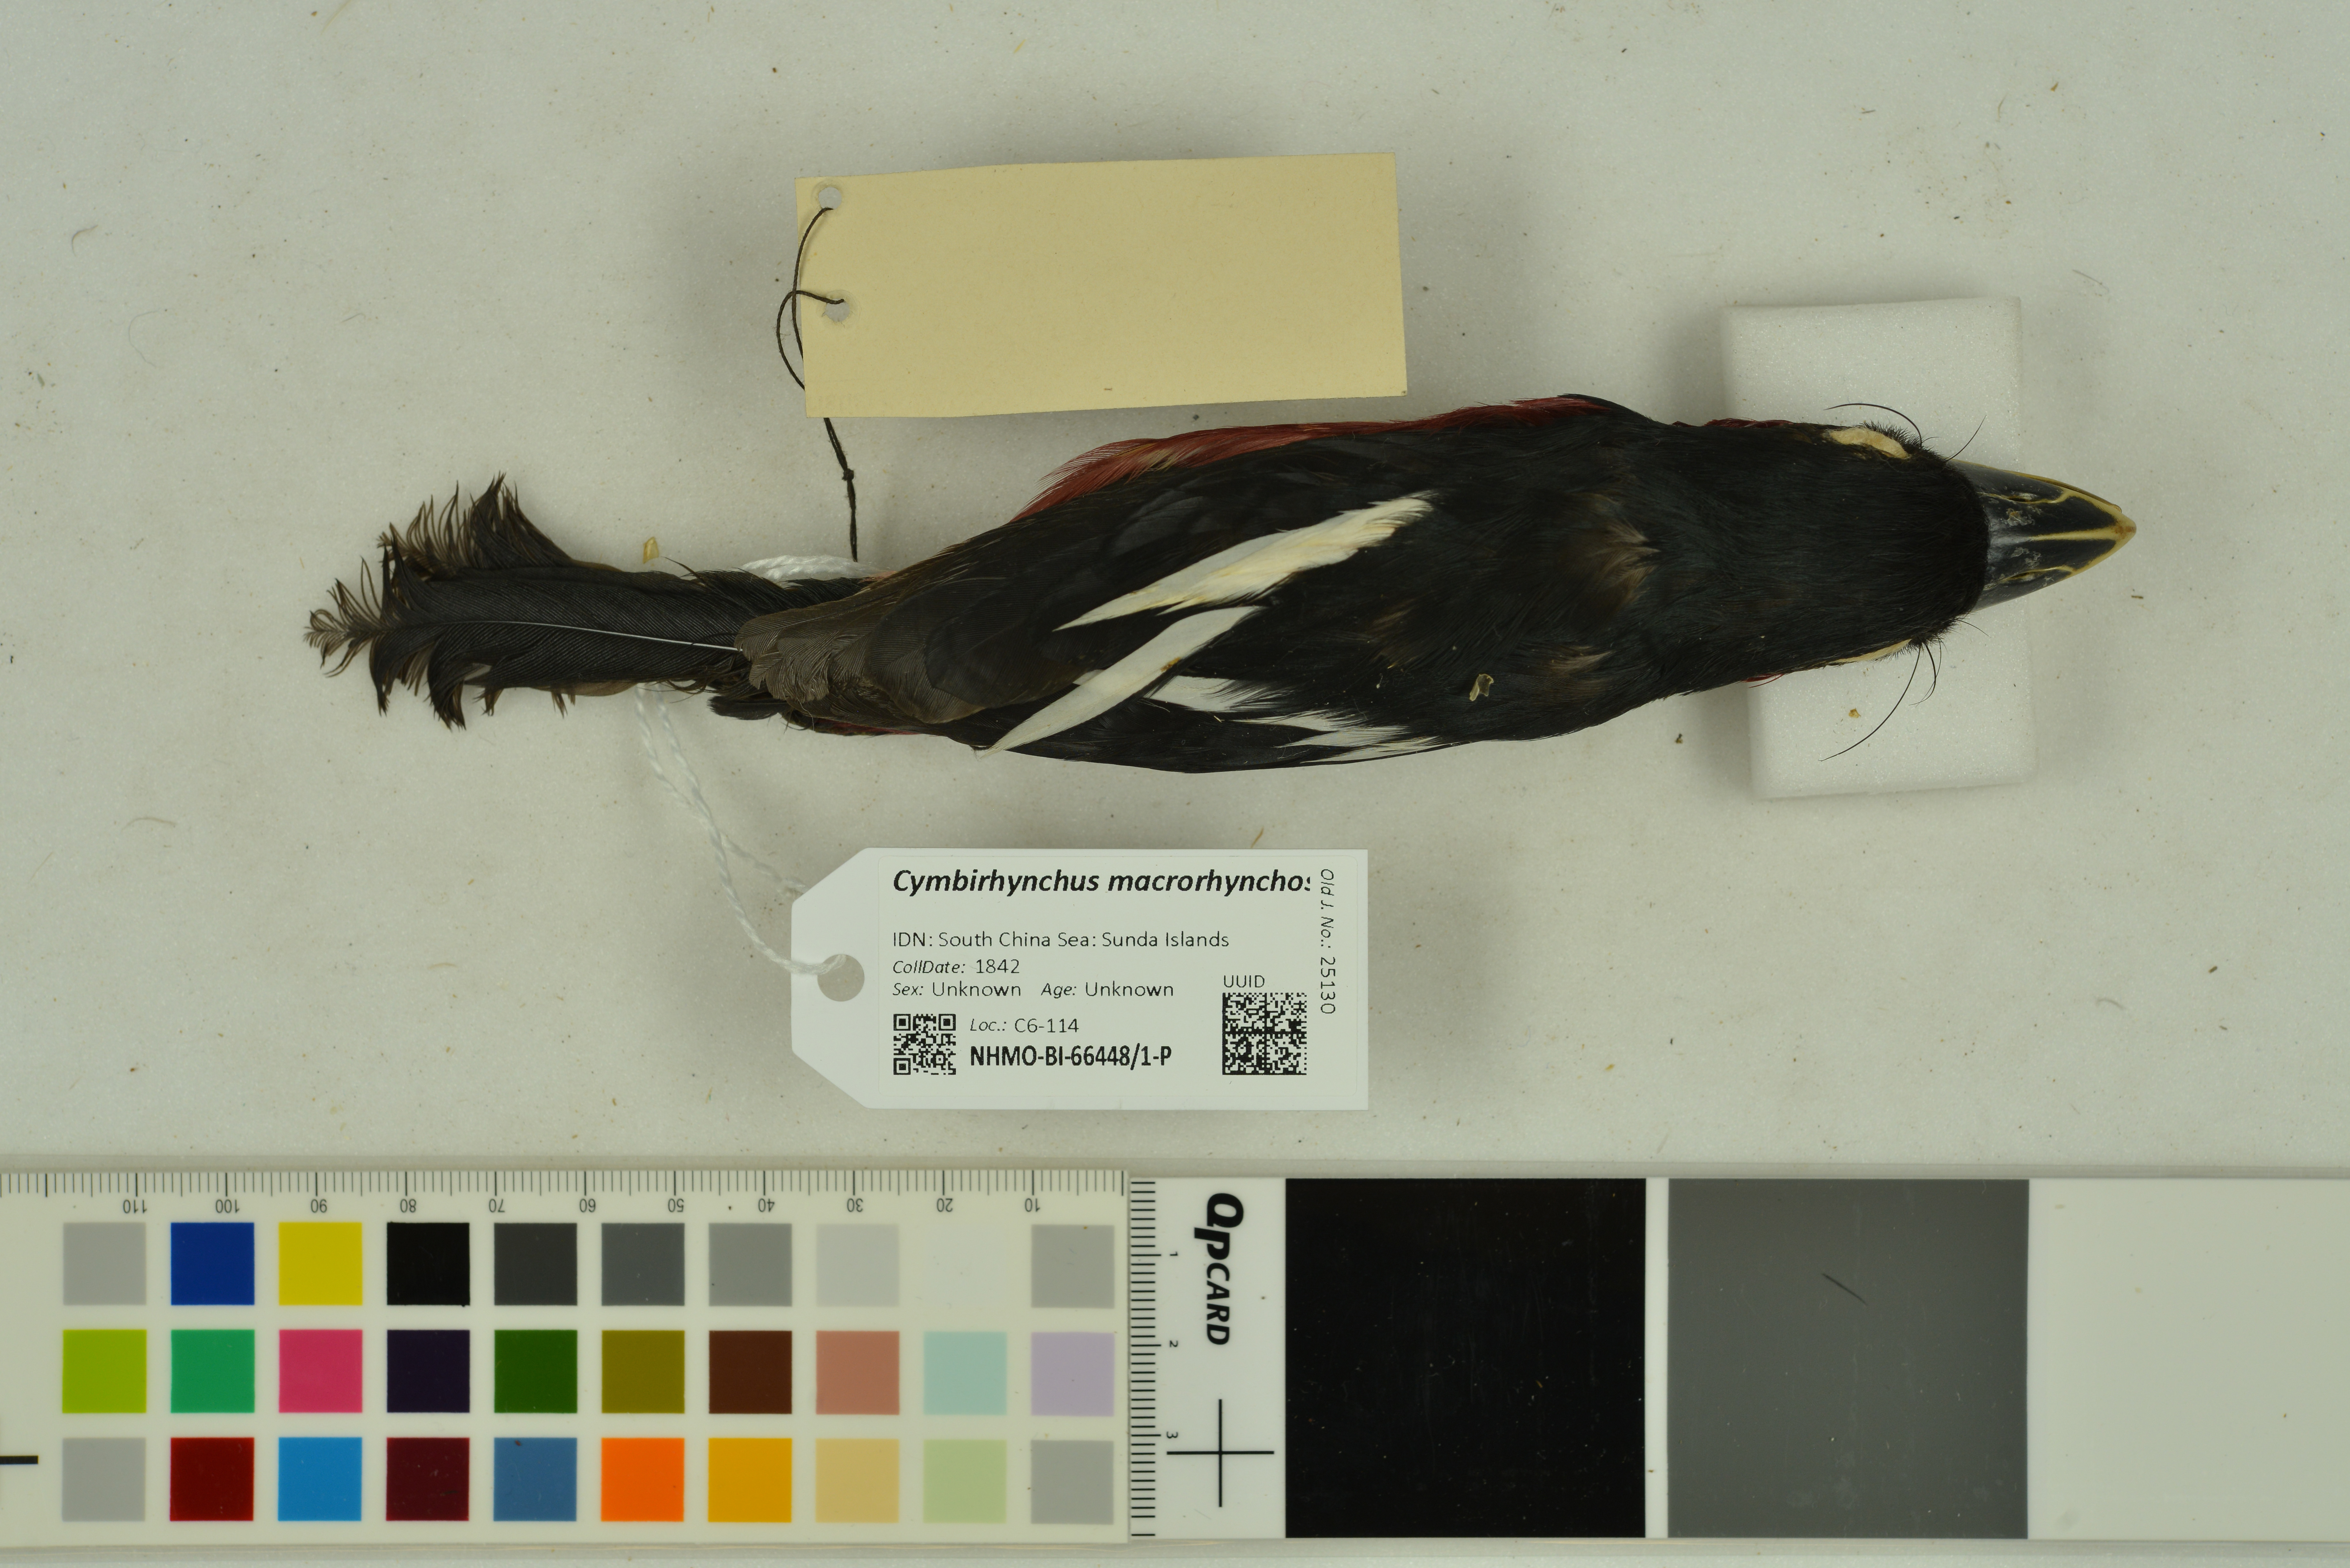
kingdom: Animalia
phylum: Chordata
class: Aves
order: Passeriformes
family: Eurylaimidae
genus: Cymbirhynchus
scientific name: Cymbirhynchus macrorhynchos
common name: Black-and-red broadbill
